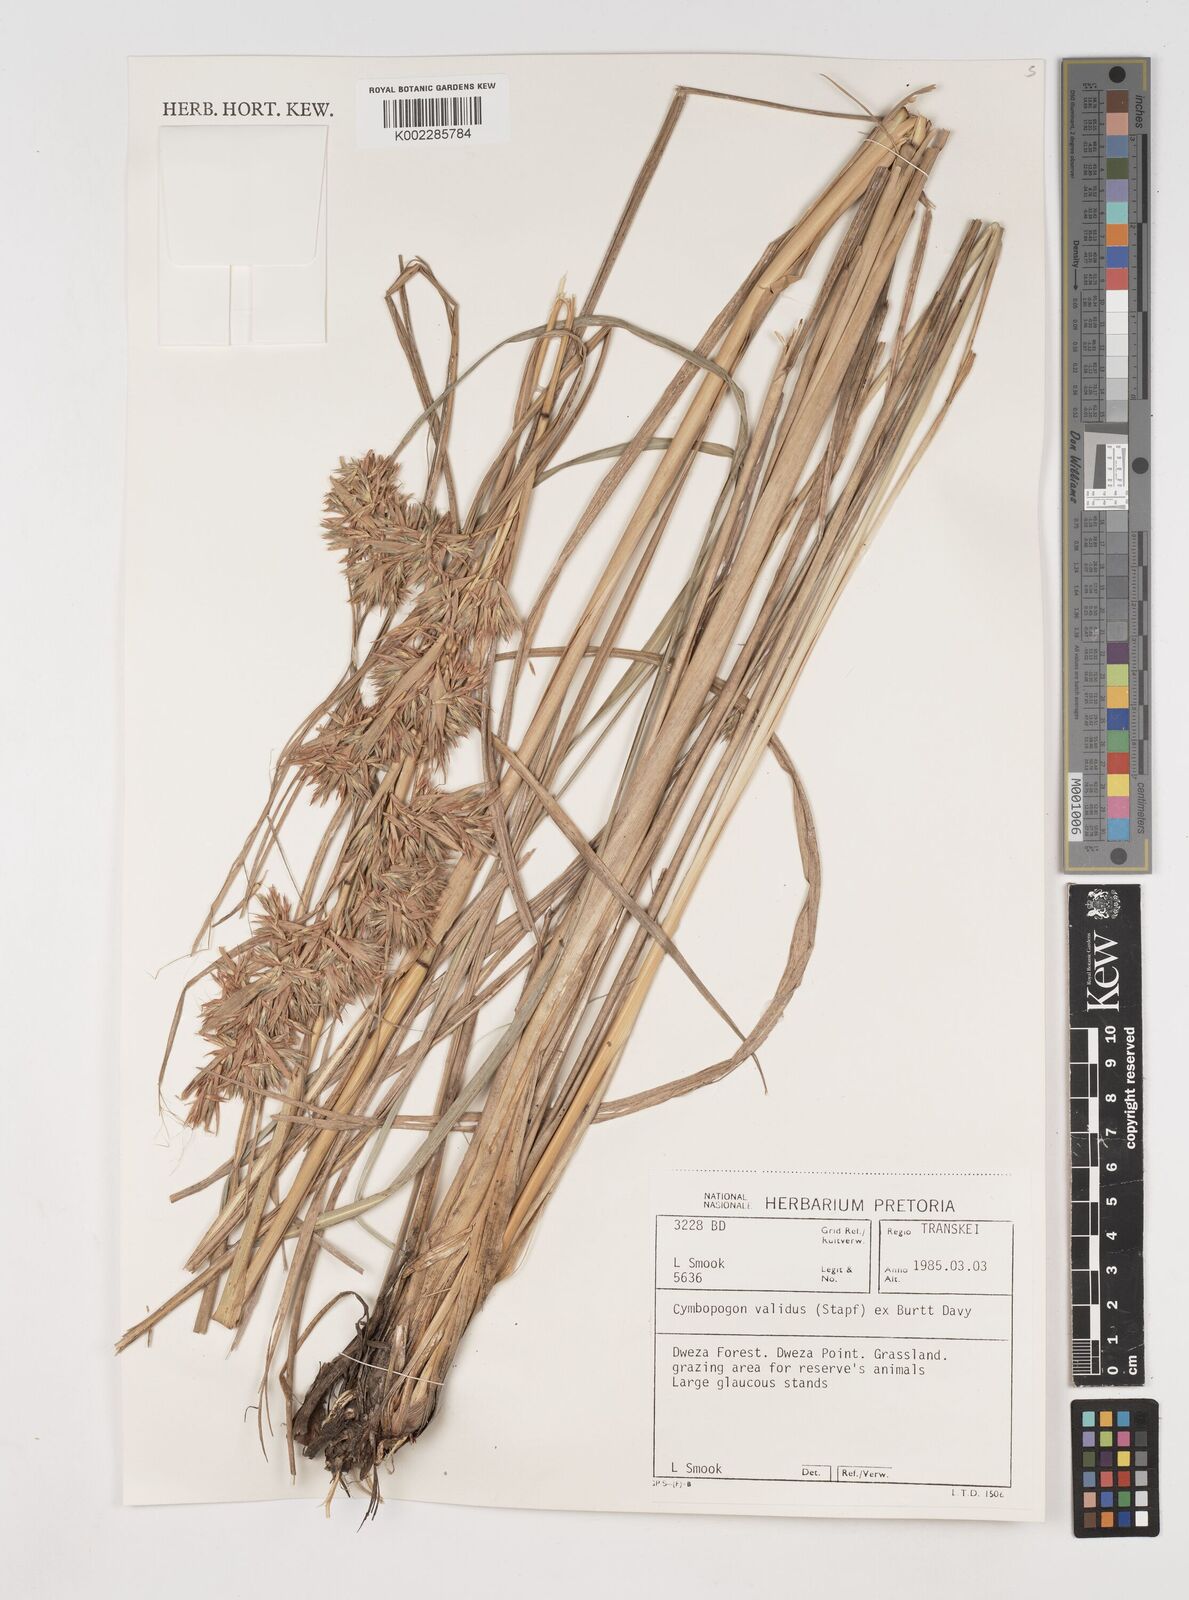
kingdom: Plantae
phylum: Tracheophyta
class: Liliopsida
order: Poales
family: Poaceae
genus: Cymbopogon
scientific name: Cymbopogon nardus
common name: Giant turpentine grass
